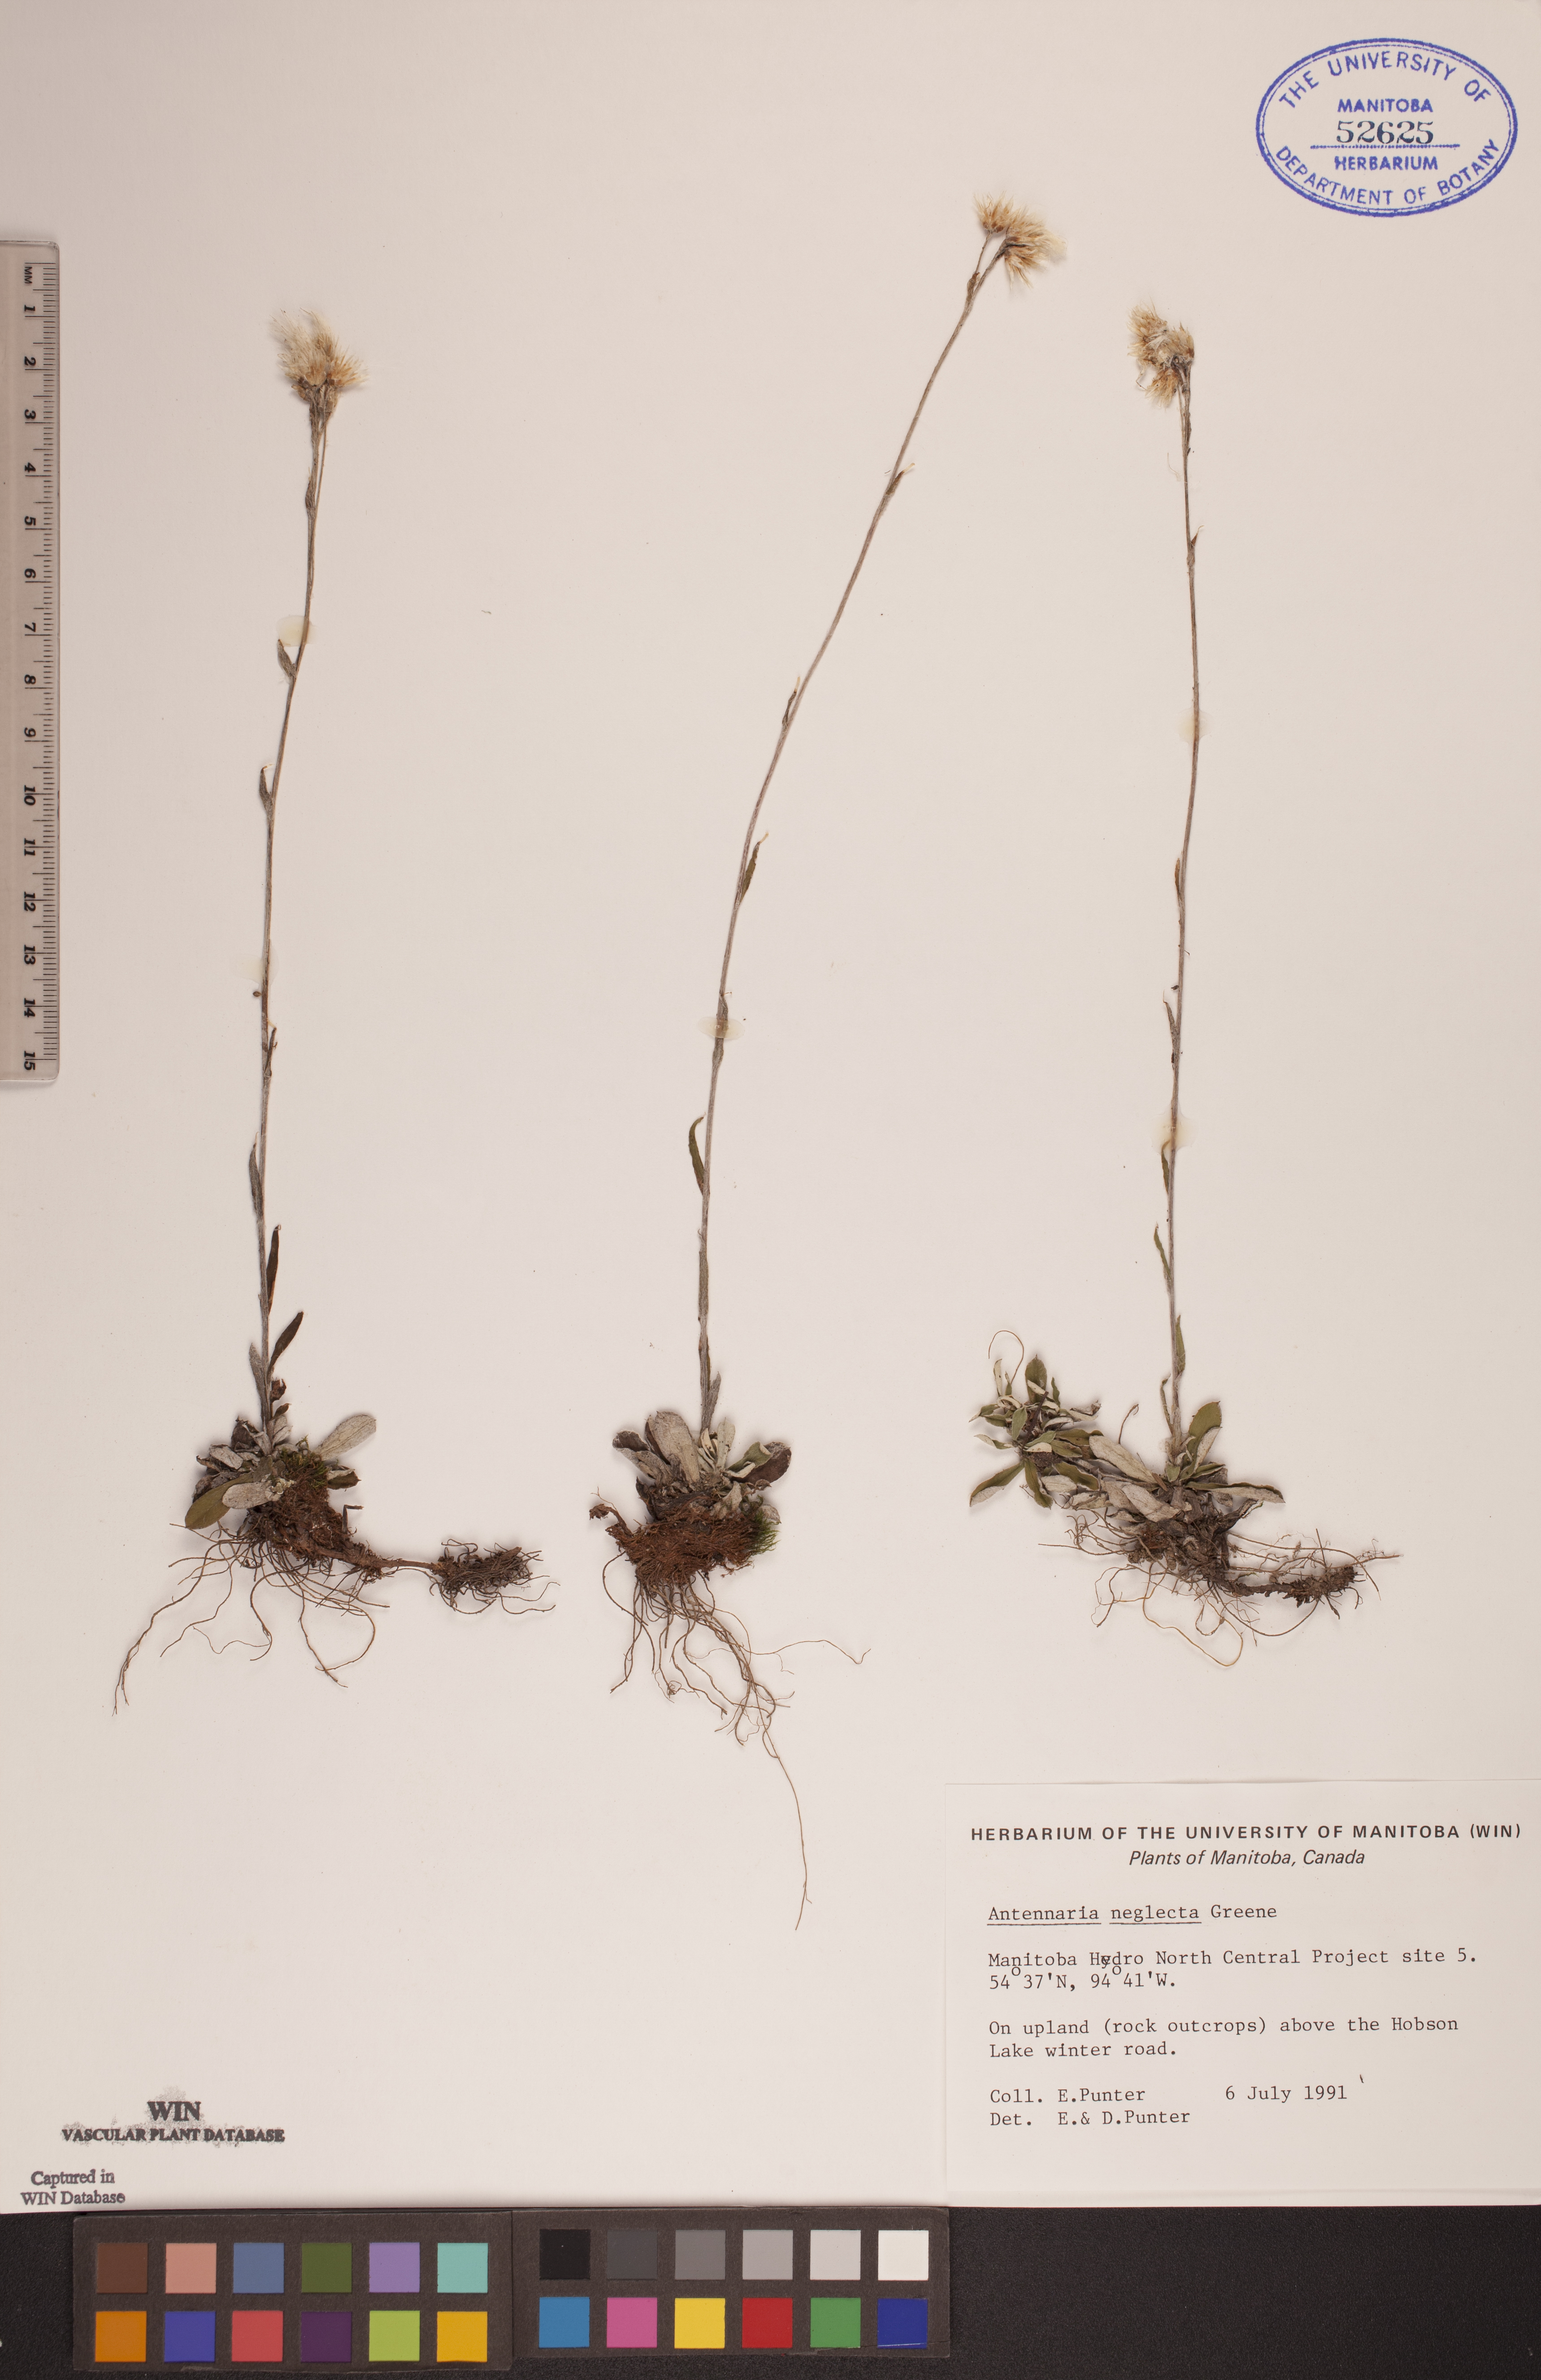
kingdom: Plantae
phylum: Tracheophyta
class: Magnoliopsida
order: Asterales
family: Asteraceae
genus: Antennaria
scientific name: Antennaria neglecta
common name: Field pussytoes
